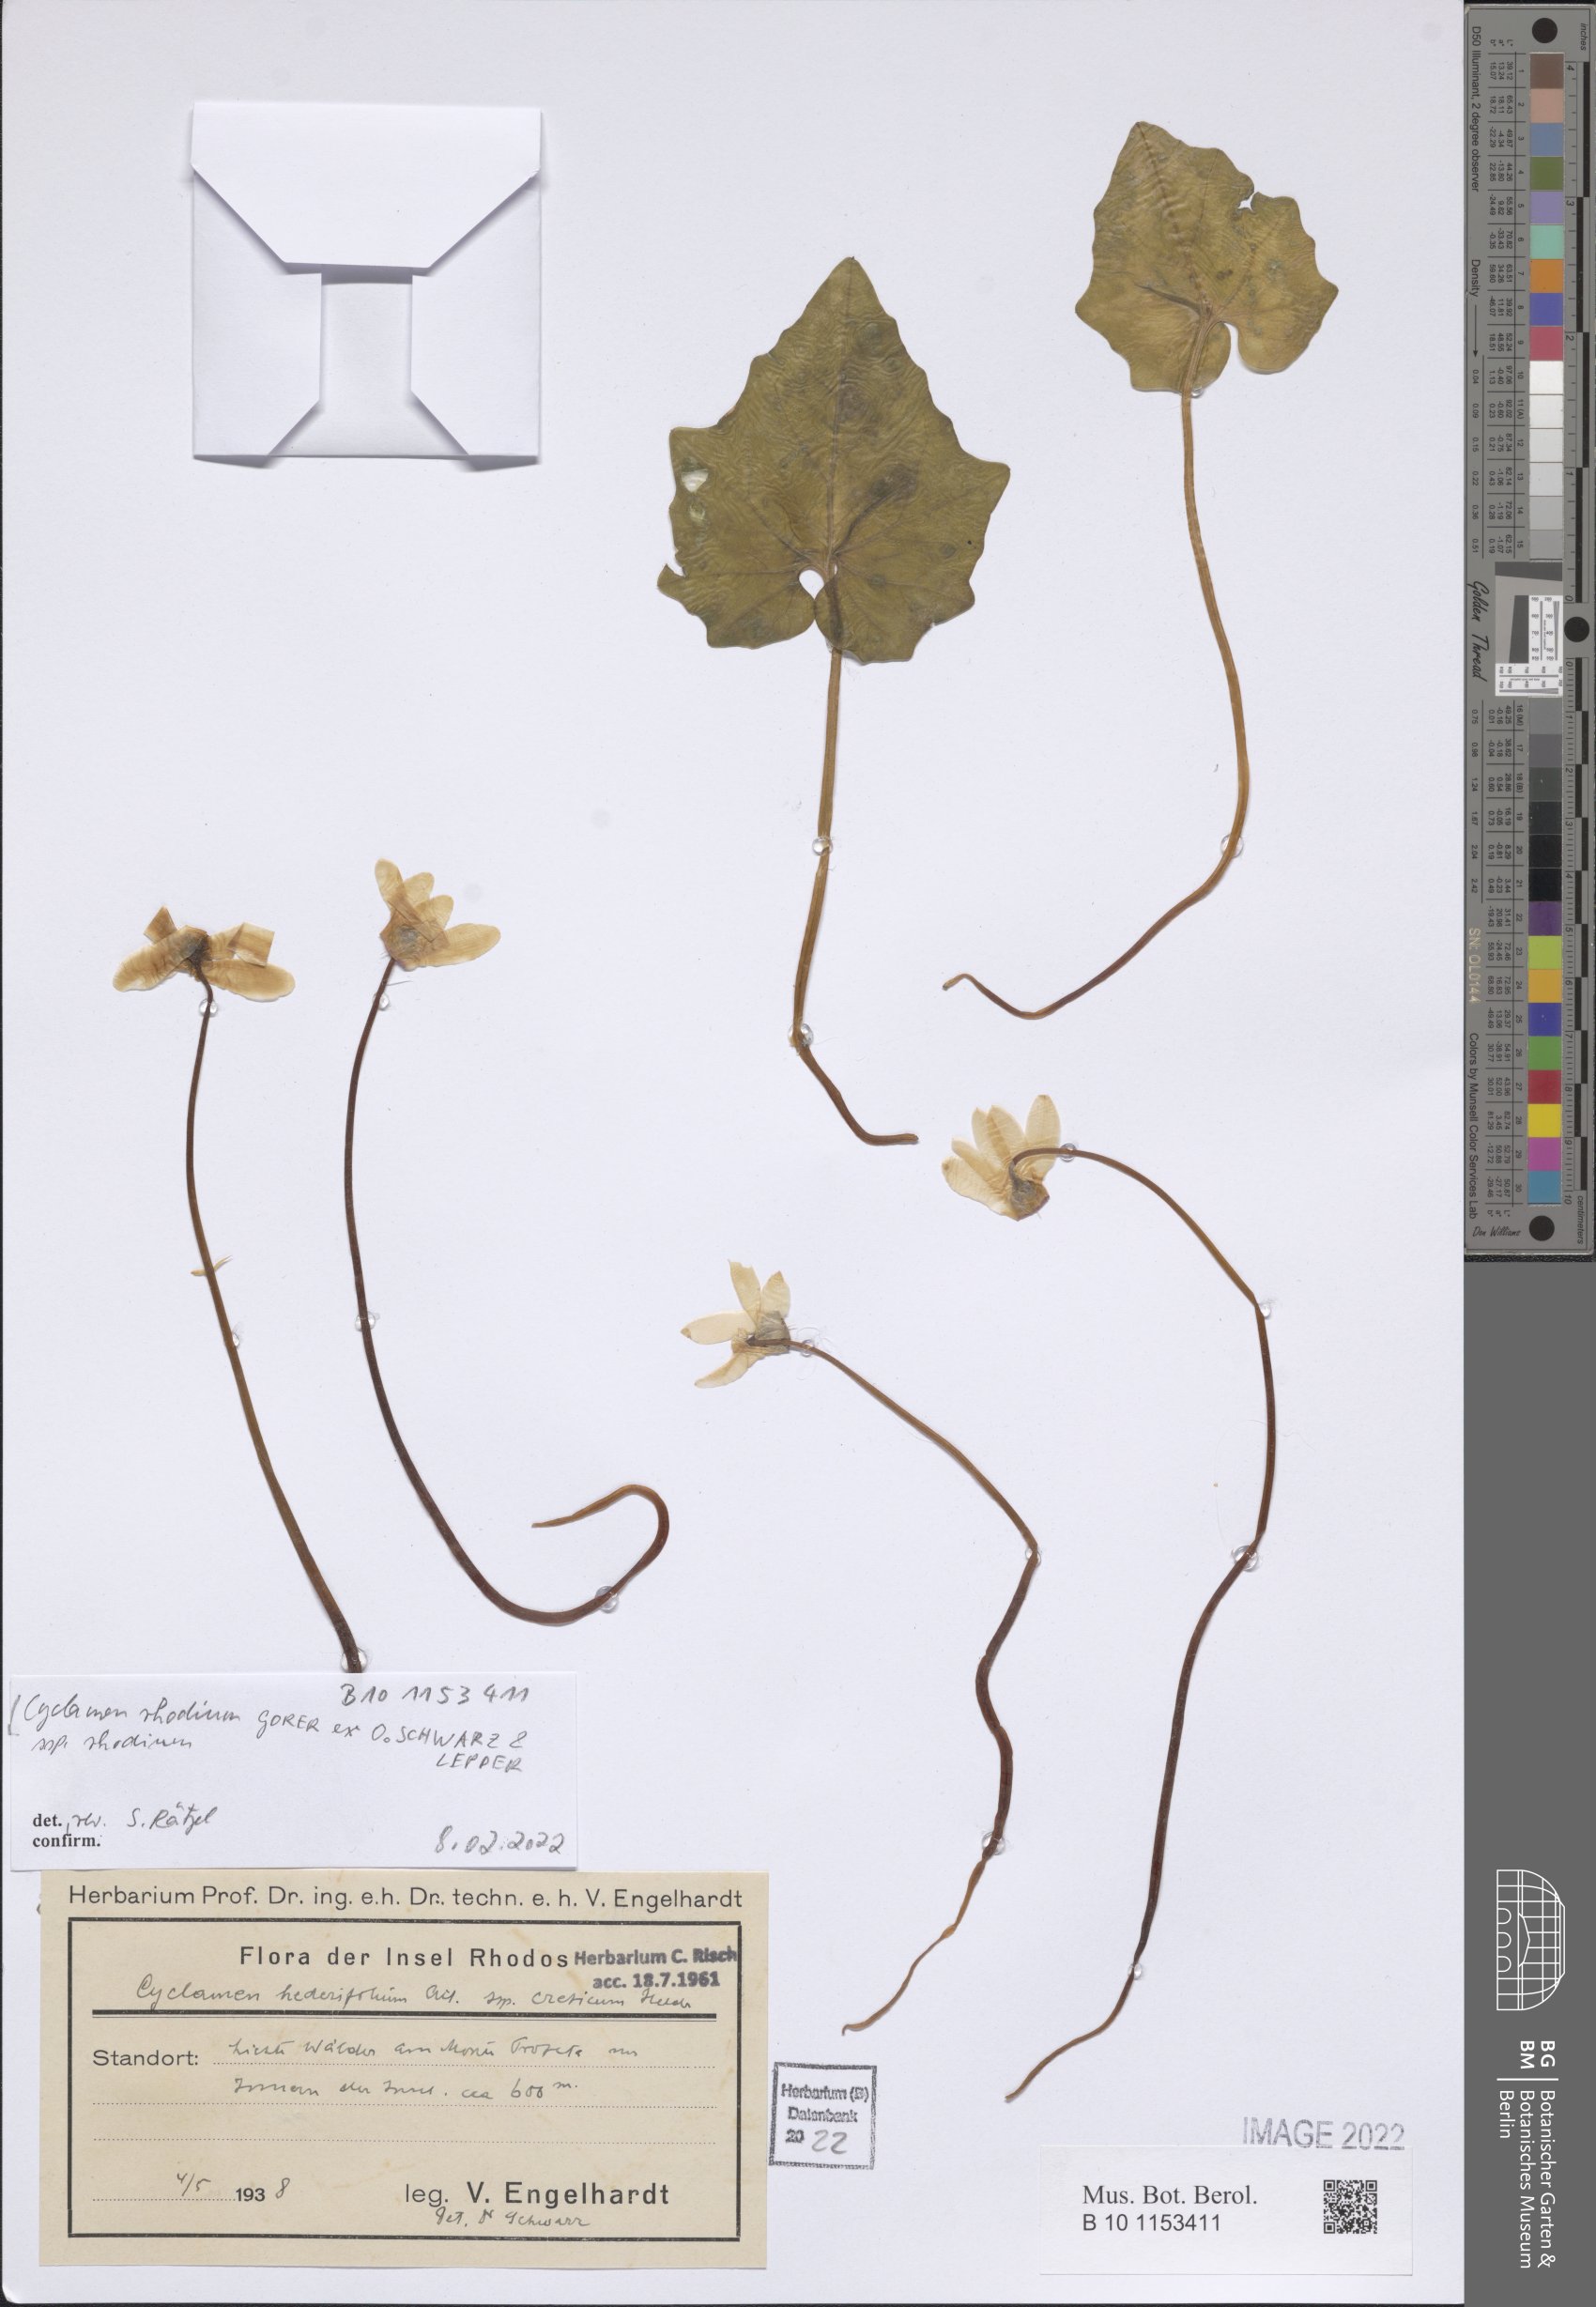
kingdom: Plantae
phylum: Tracheophyta
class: Magnoliopsida
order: Ericales
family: Primulaceae
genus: Cyclamen
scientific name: Cyclamen repandum
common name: Spring sowbread
